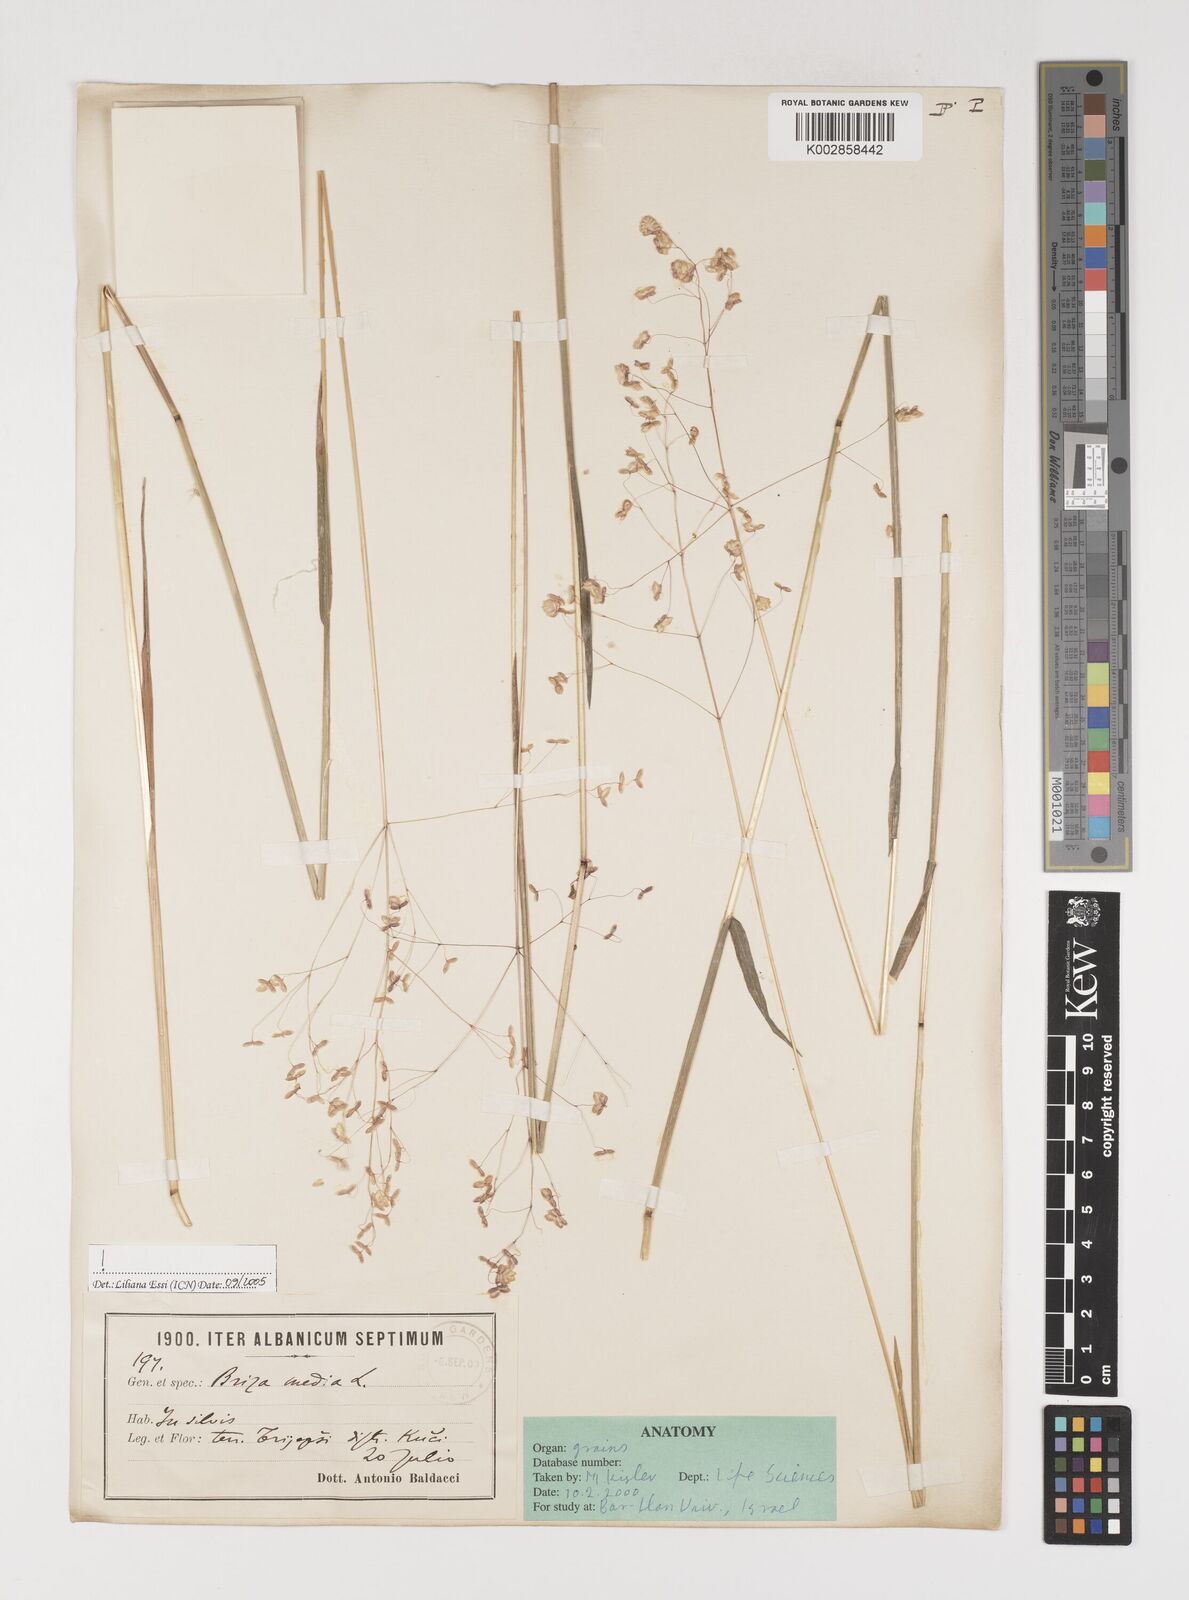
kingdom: Plantae
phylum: Tracheophyta
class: Liliopsida
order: Poales
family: Poaceae
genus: Briza
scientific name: Briza media
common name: Quaking grass
